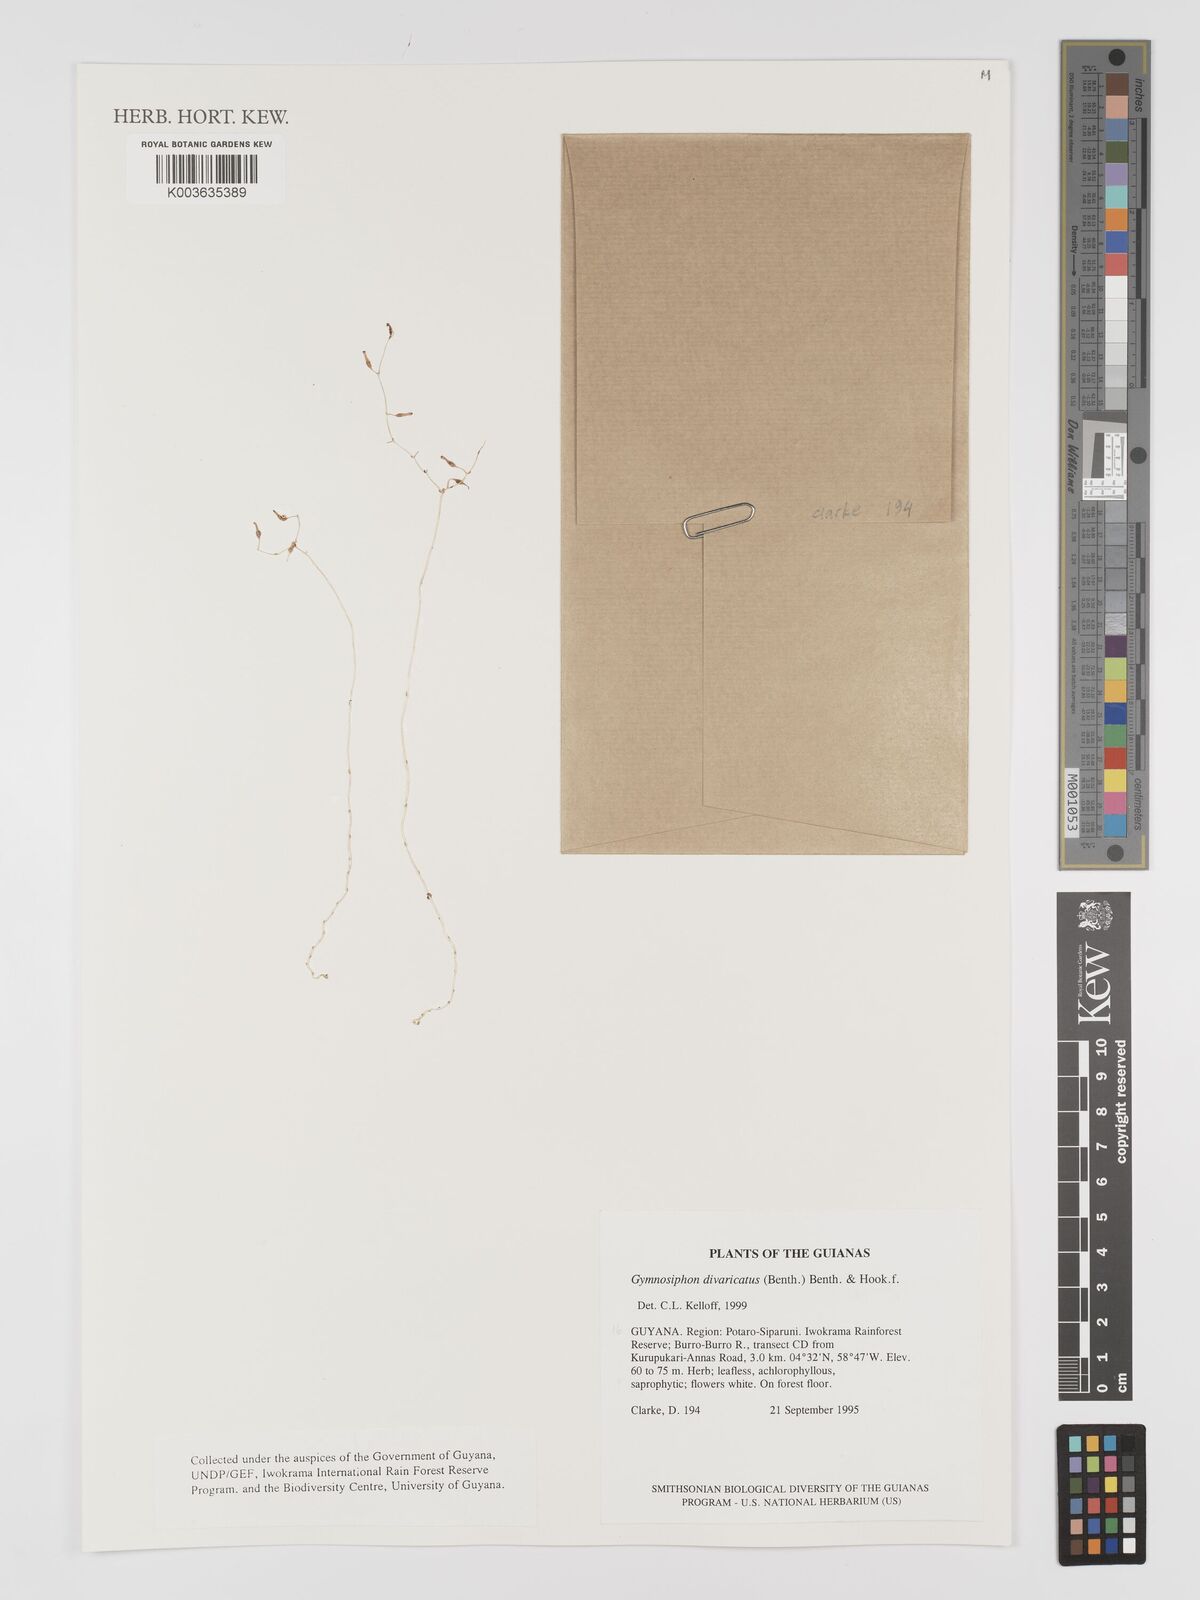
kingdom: Plantae
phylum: Tracheophyta
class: Liliopsida
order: Dioscoreales
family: Burmanniaceae
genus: Gymnosiphon
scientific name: Gymnosiphon divaricatus
